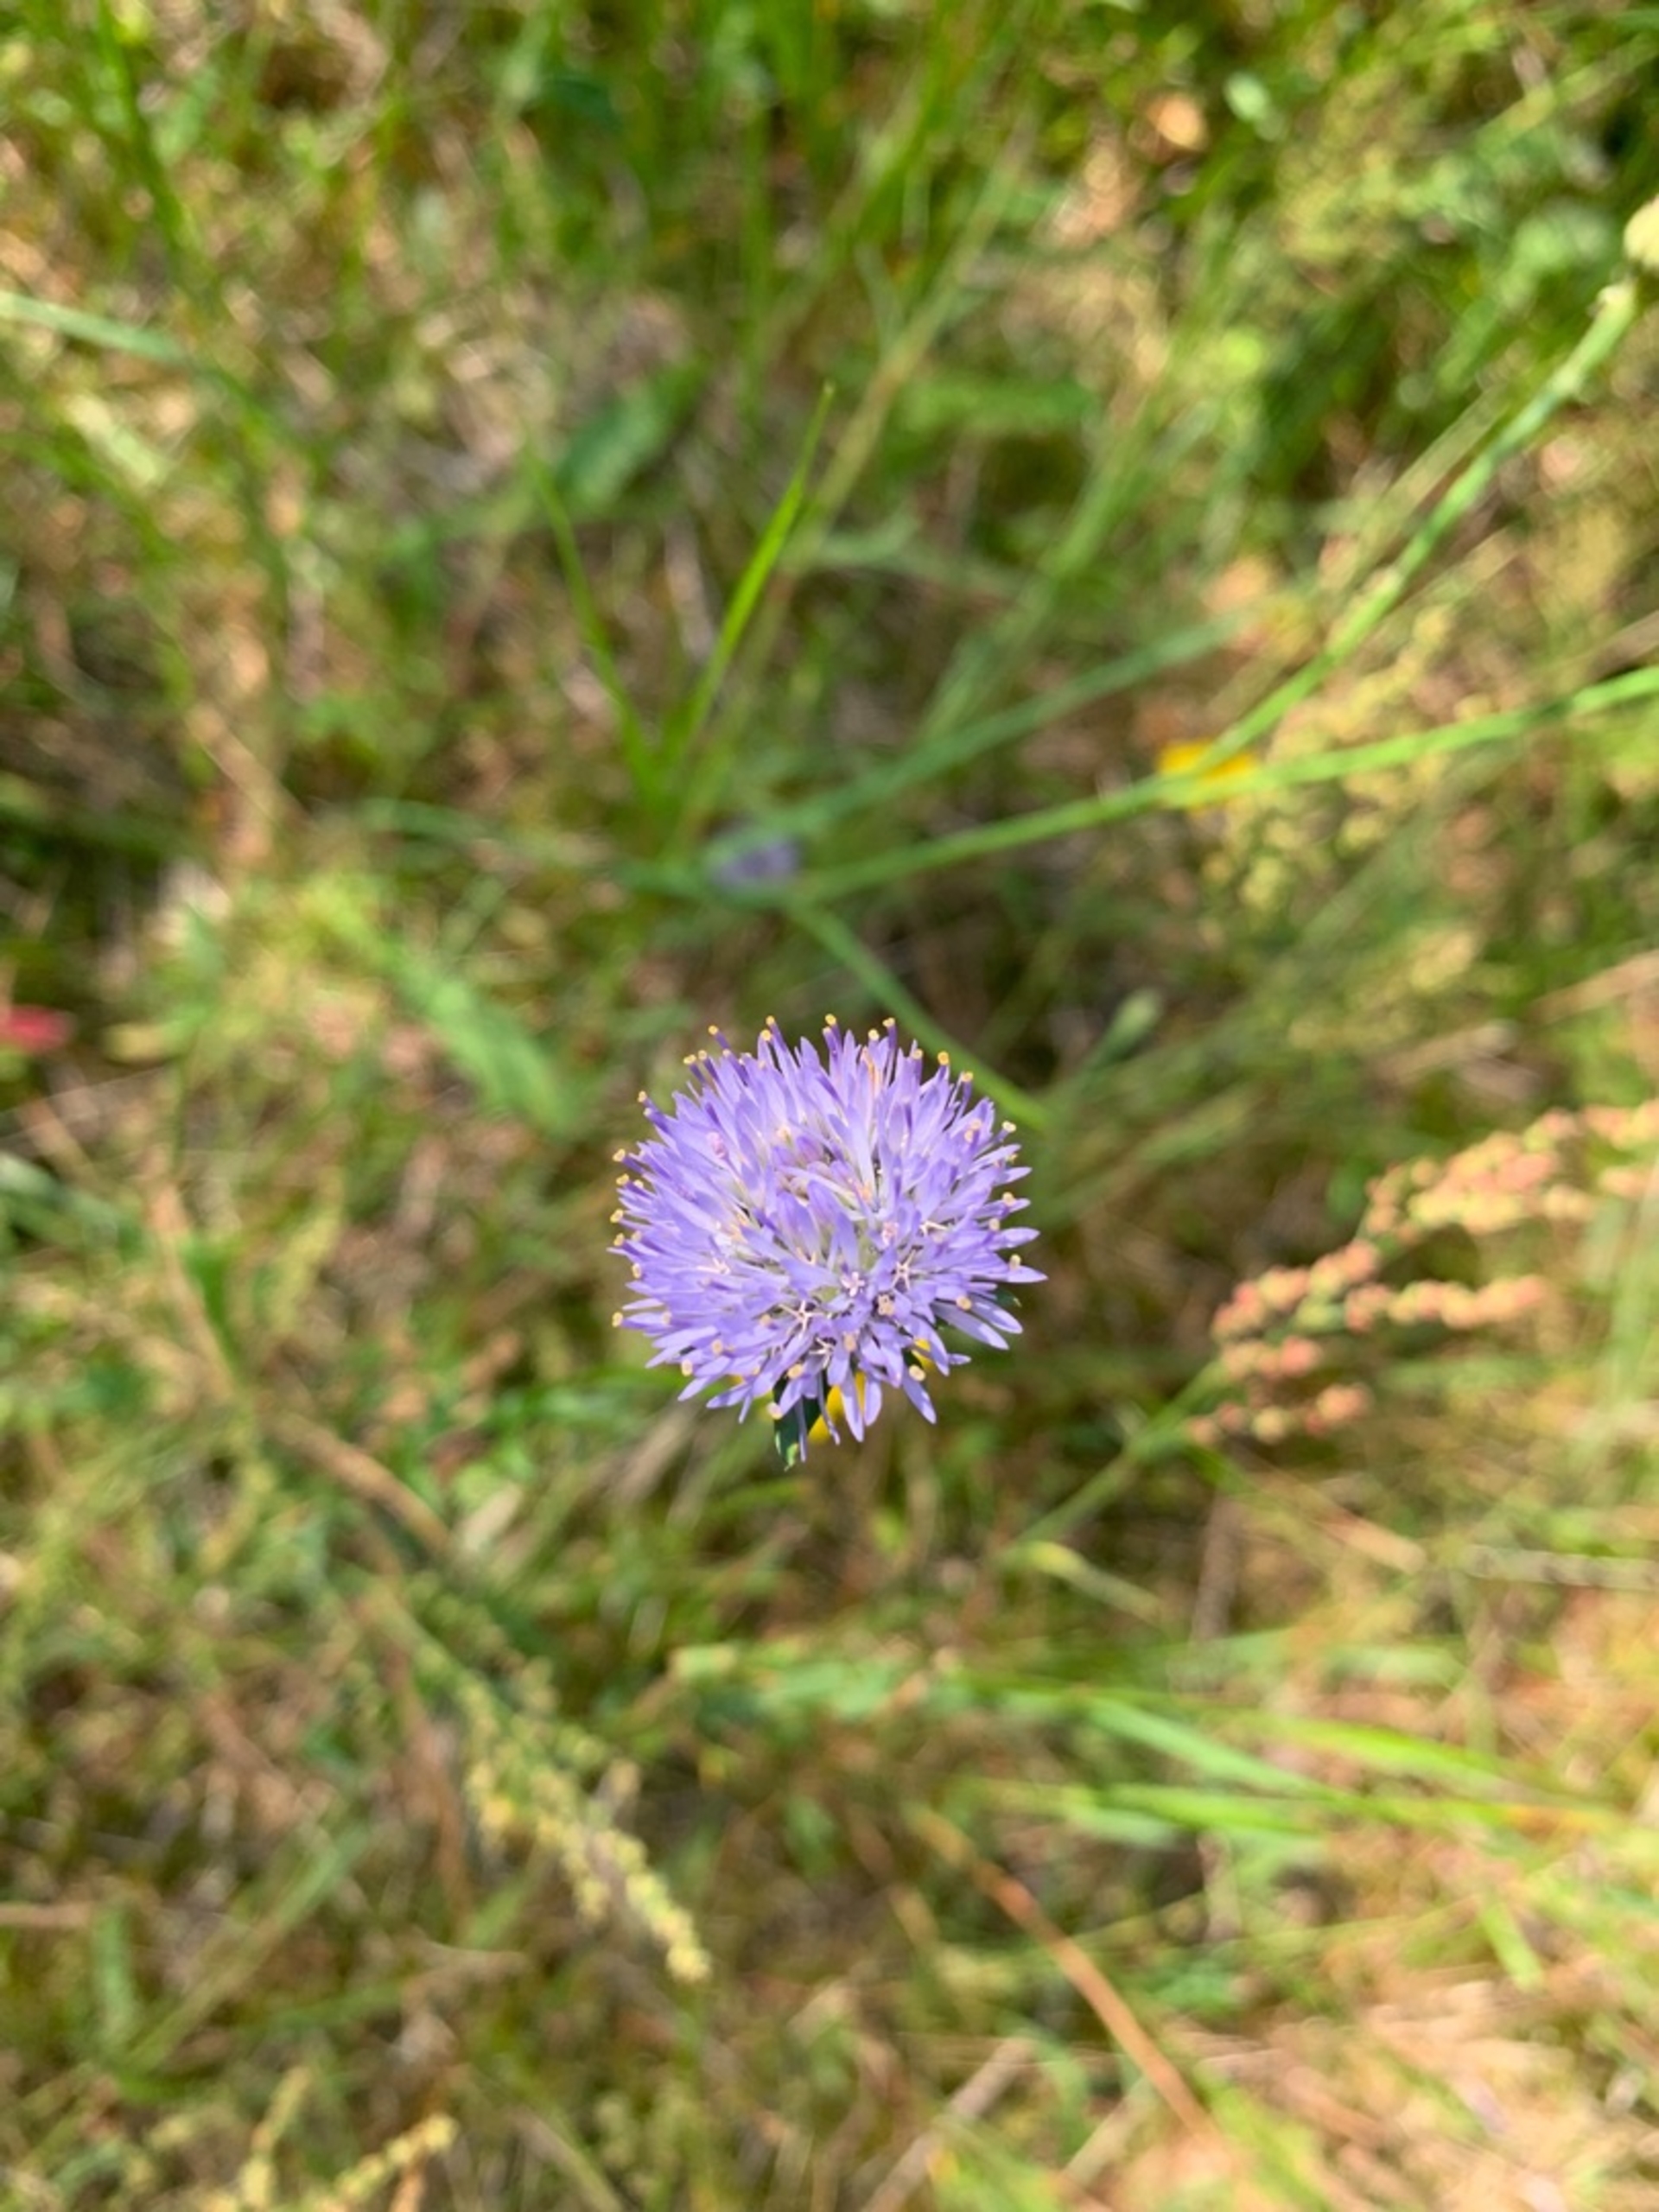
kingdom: Plantae
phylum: Tracheophyta
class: Magnoliopsida
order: Asterales
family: Campanulaceae
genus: Jasione
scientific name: Jasione montana
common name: Blåmunke
